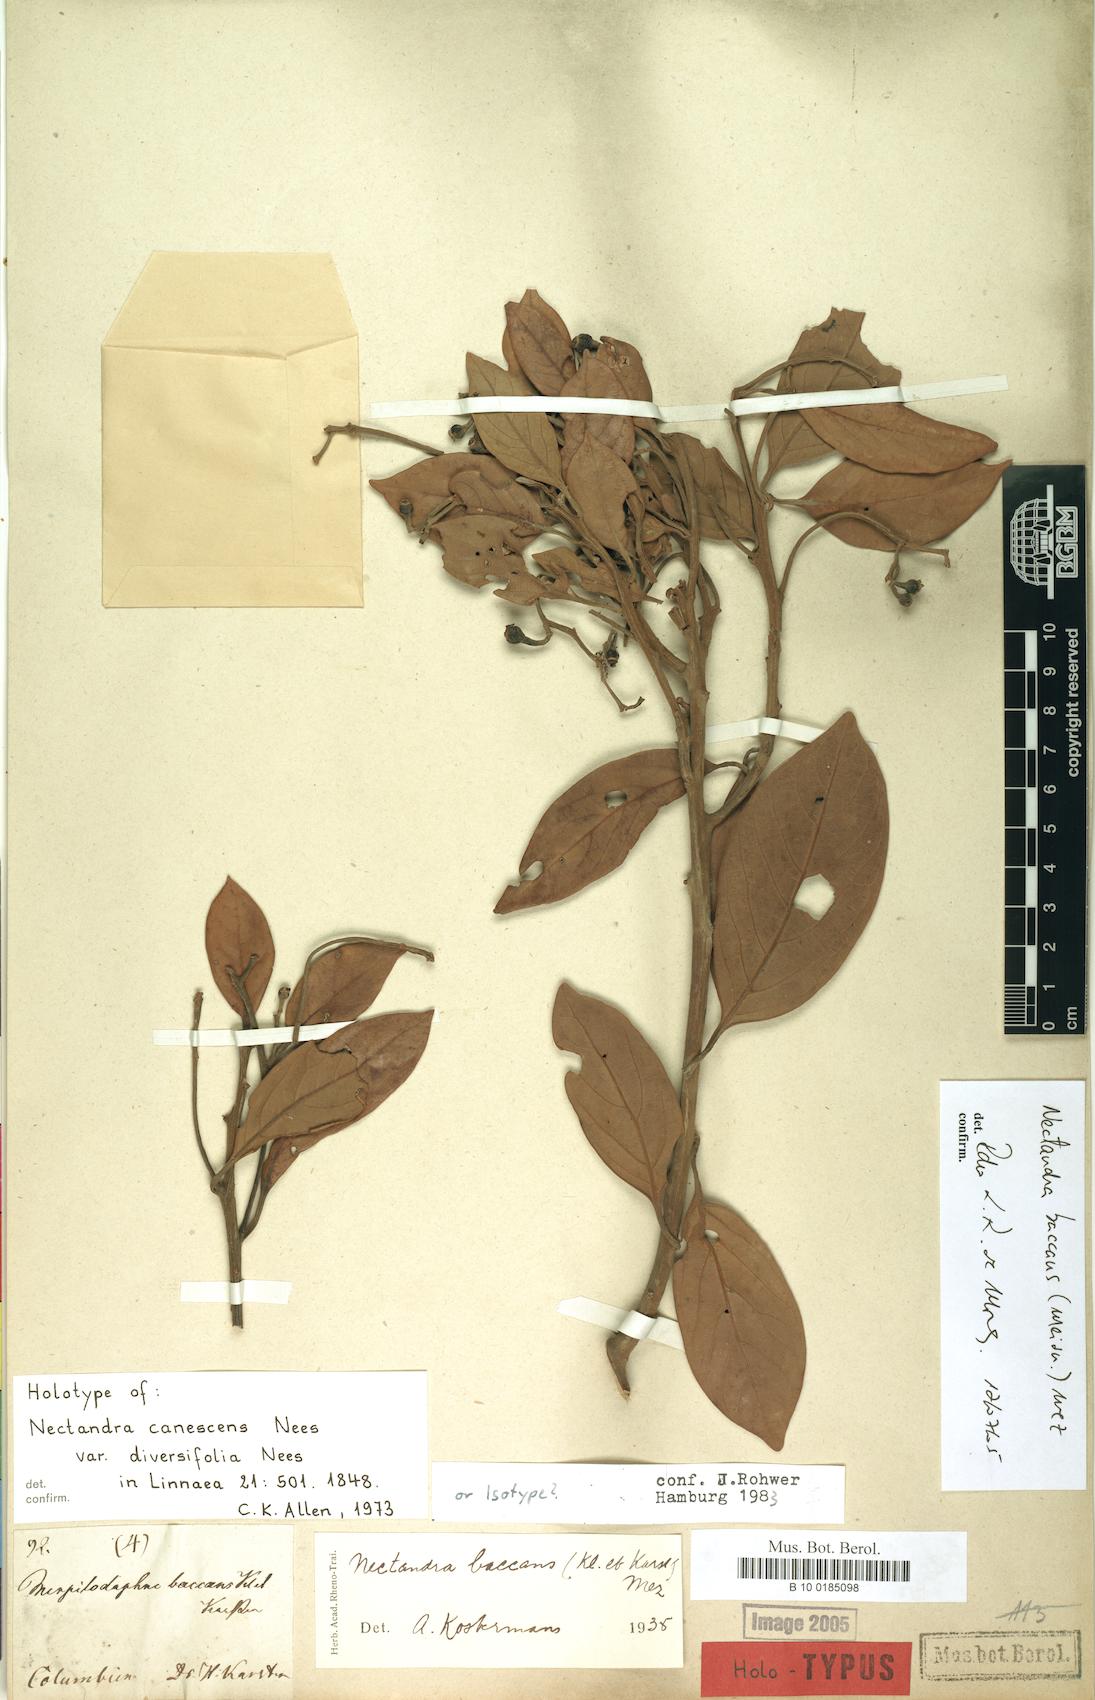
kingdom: Plantae
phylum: Tracheophyta
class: Magnoliopsida
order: Laurales
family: Lauraceae
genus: Nectandra
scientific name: Nectandra baccans
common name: Berrylike nectandra
